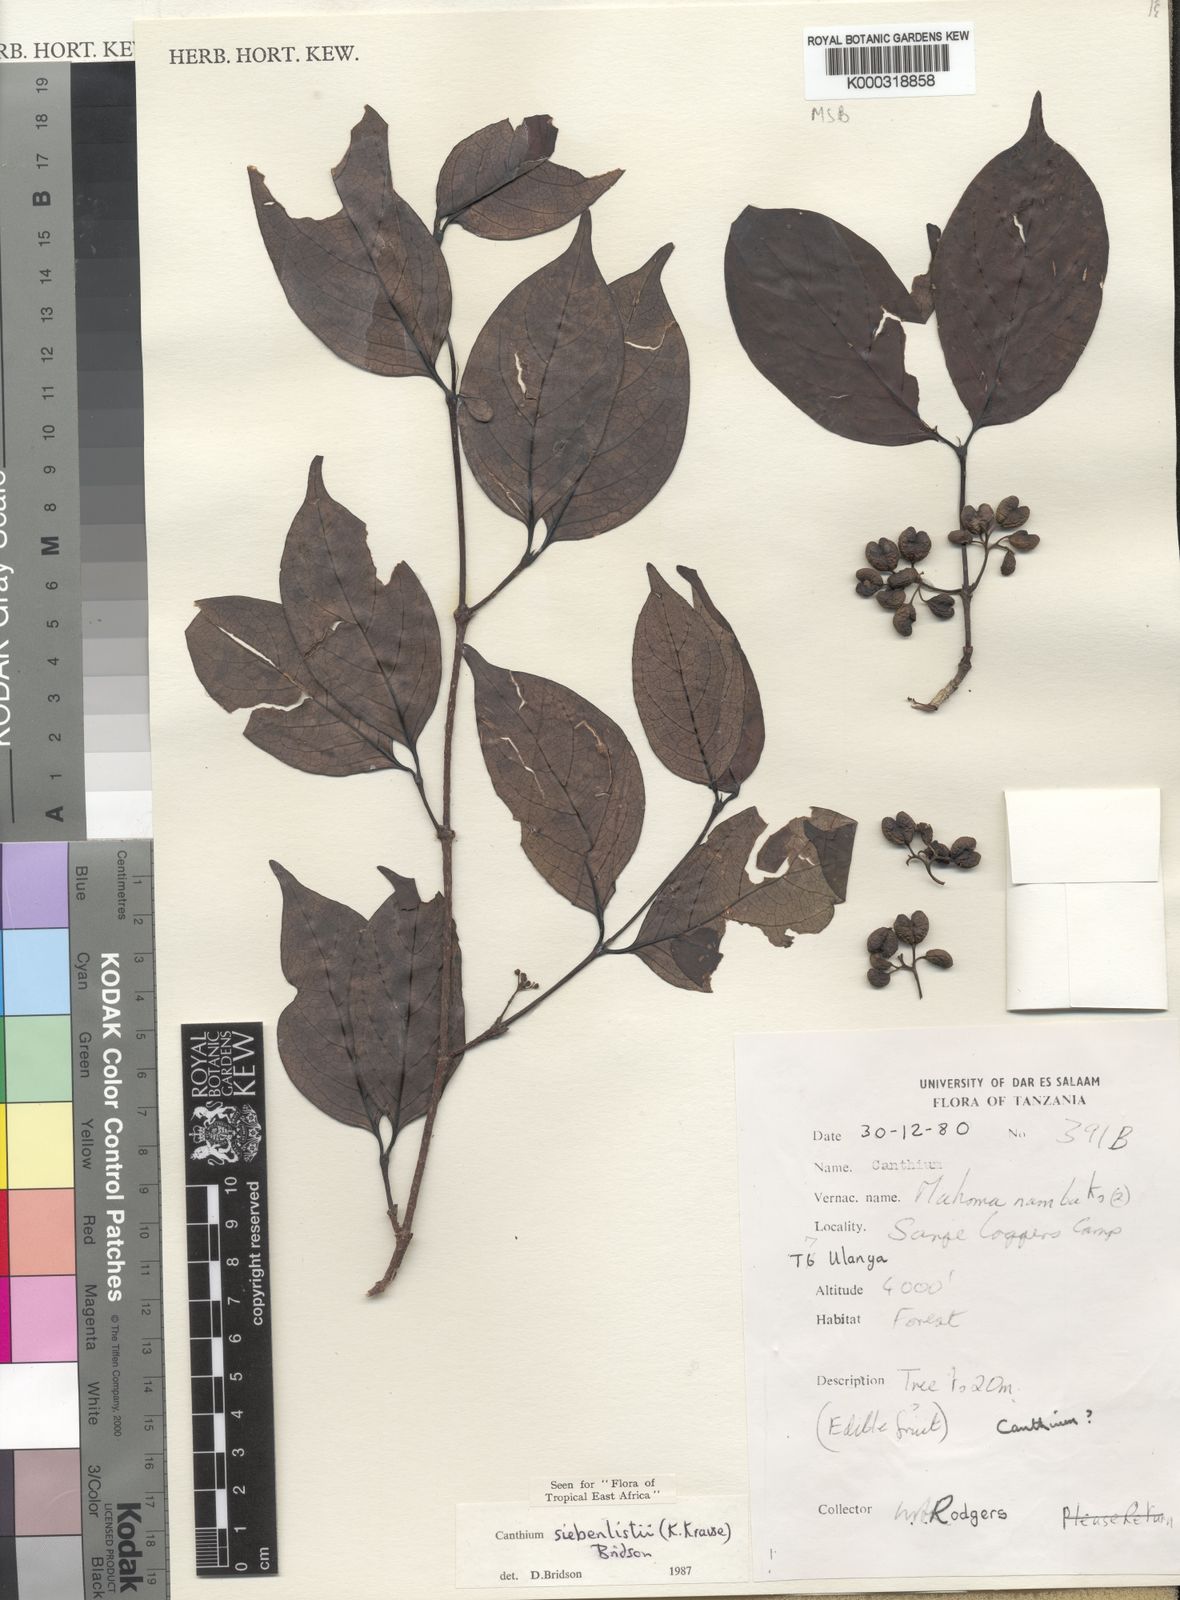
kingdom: Plantae
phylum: Tracheophyta
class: Magnoliopsida
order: Gentianales
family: Rubiaceae
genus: Afrocanthium
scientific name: Afrocanthium siebenlistii
